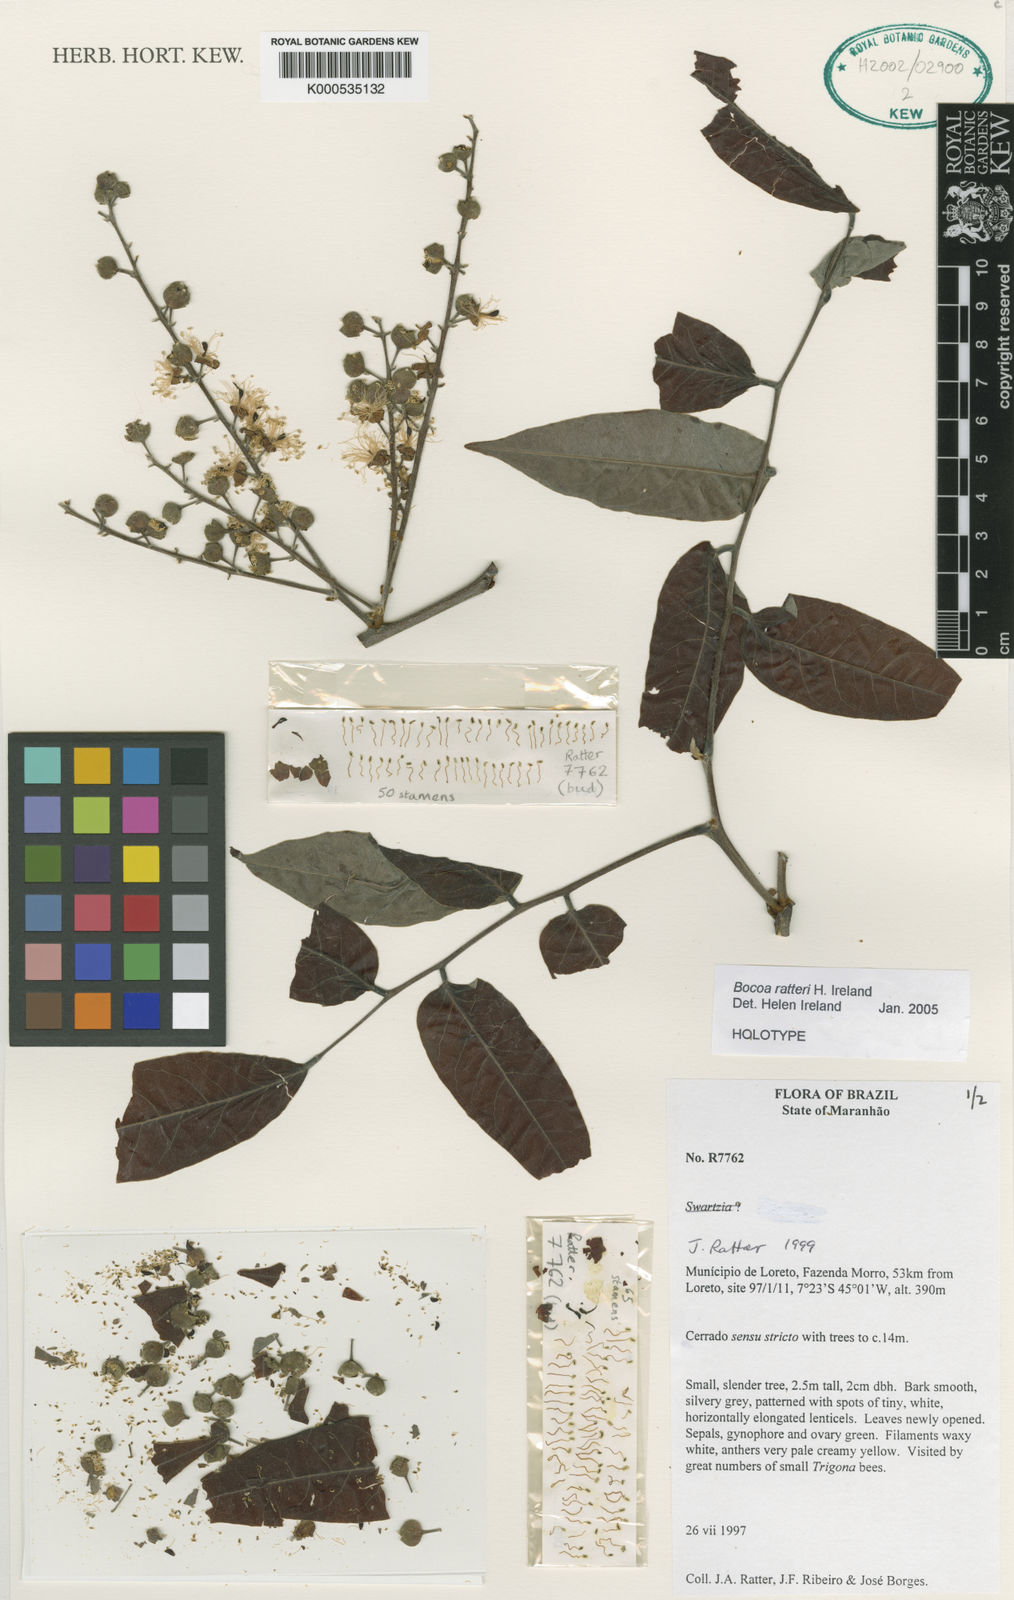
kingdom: Plantae
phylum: Tracheophyta
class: Magnoliopsida
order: Fabales
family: Fabaceae
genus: Bocoa
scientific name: Bocoa ratteri
